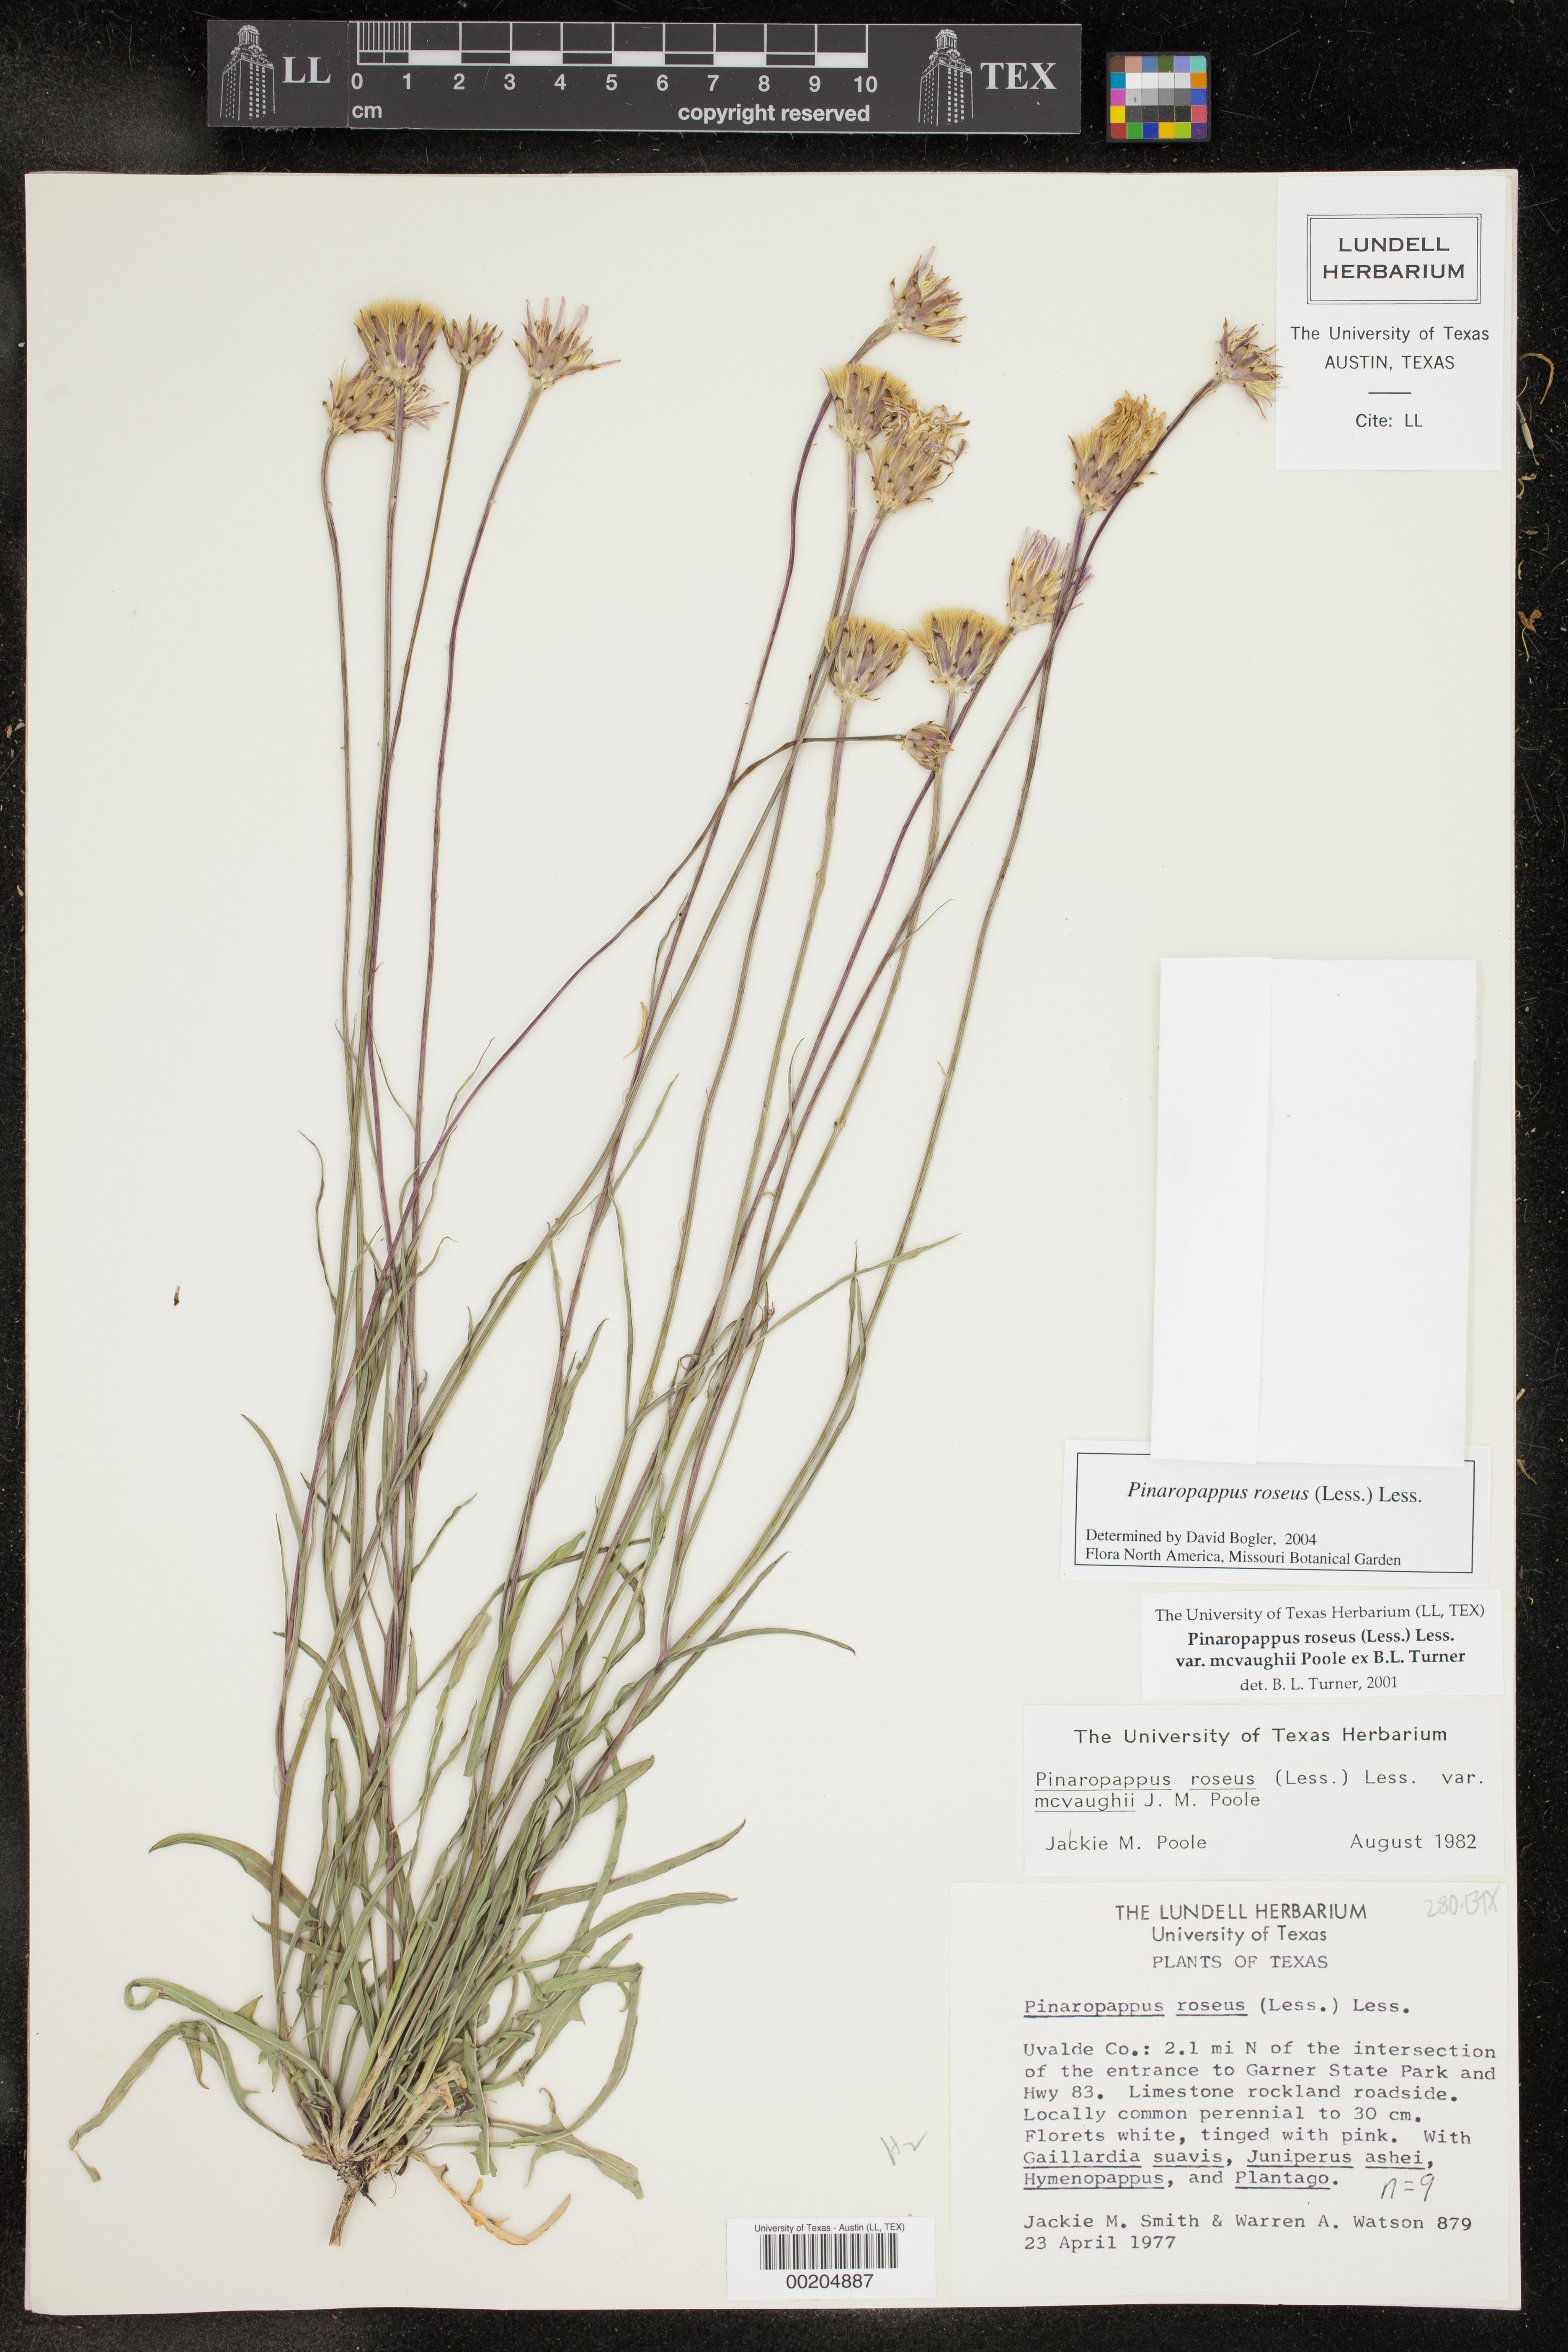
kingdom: Plantae
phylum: Tracheophyta
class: Magnoliopsida
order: Asterales
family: Asteraceae
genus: Pinaropappus
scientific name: Pinaropappus roseus
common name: Rock-lettuce
